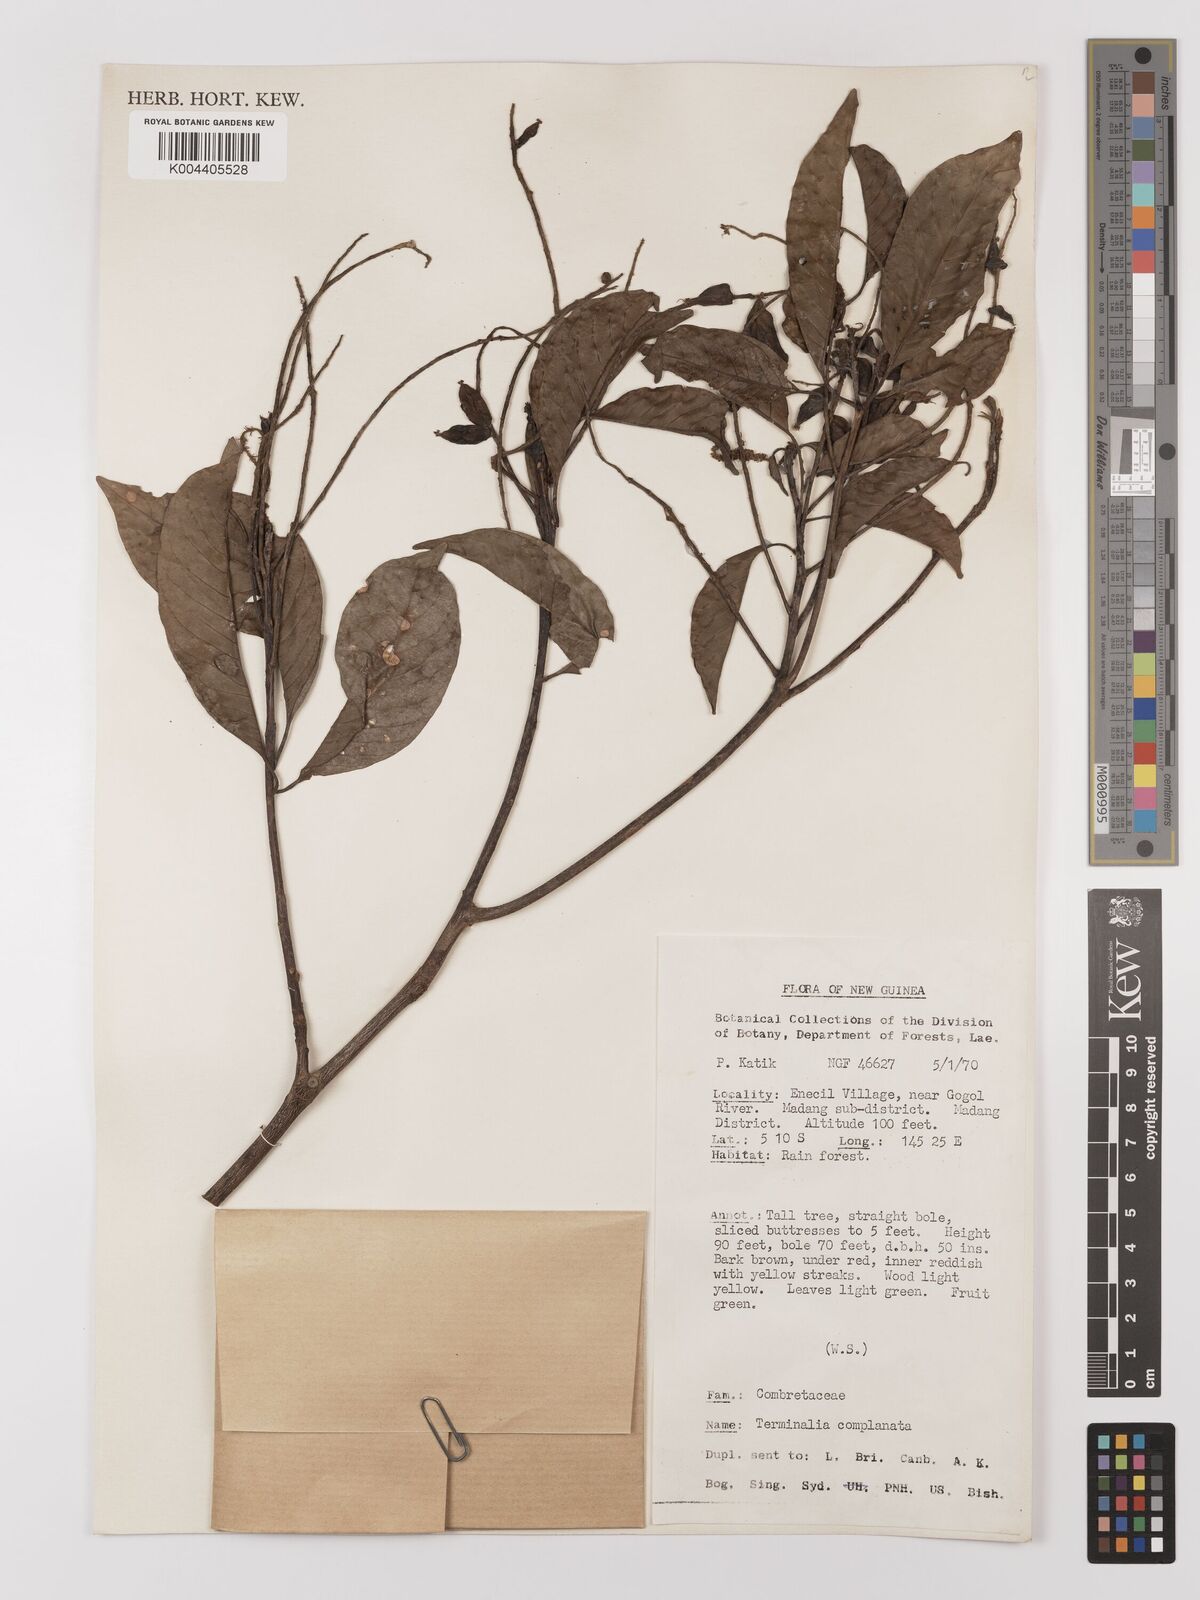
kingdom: Plantae
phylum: Tracheophyta
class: Magnoliopsida
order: Myrtales
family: Combretaceae
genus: Terminalia
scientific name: Terminalia
